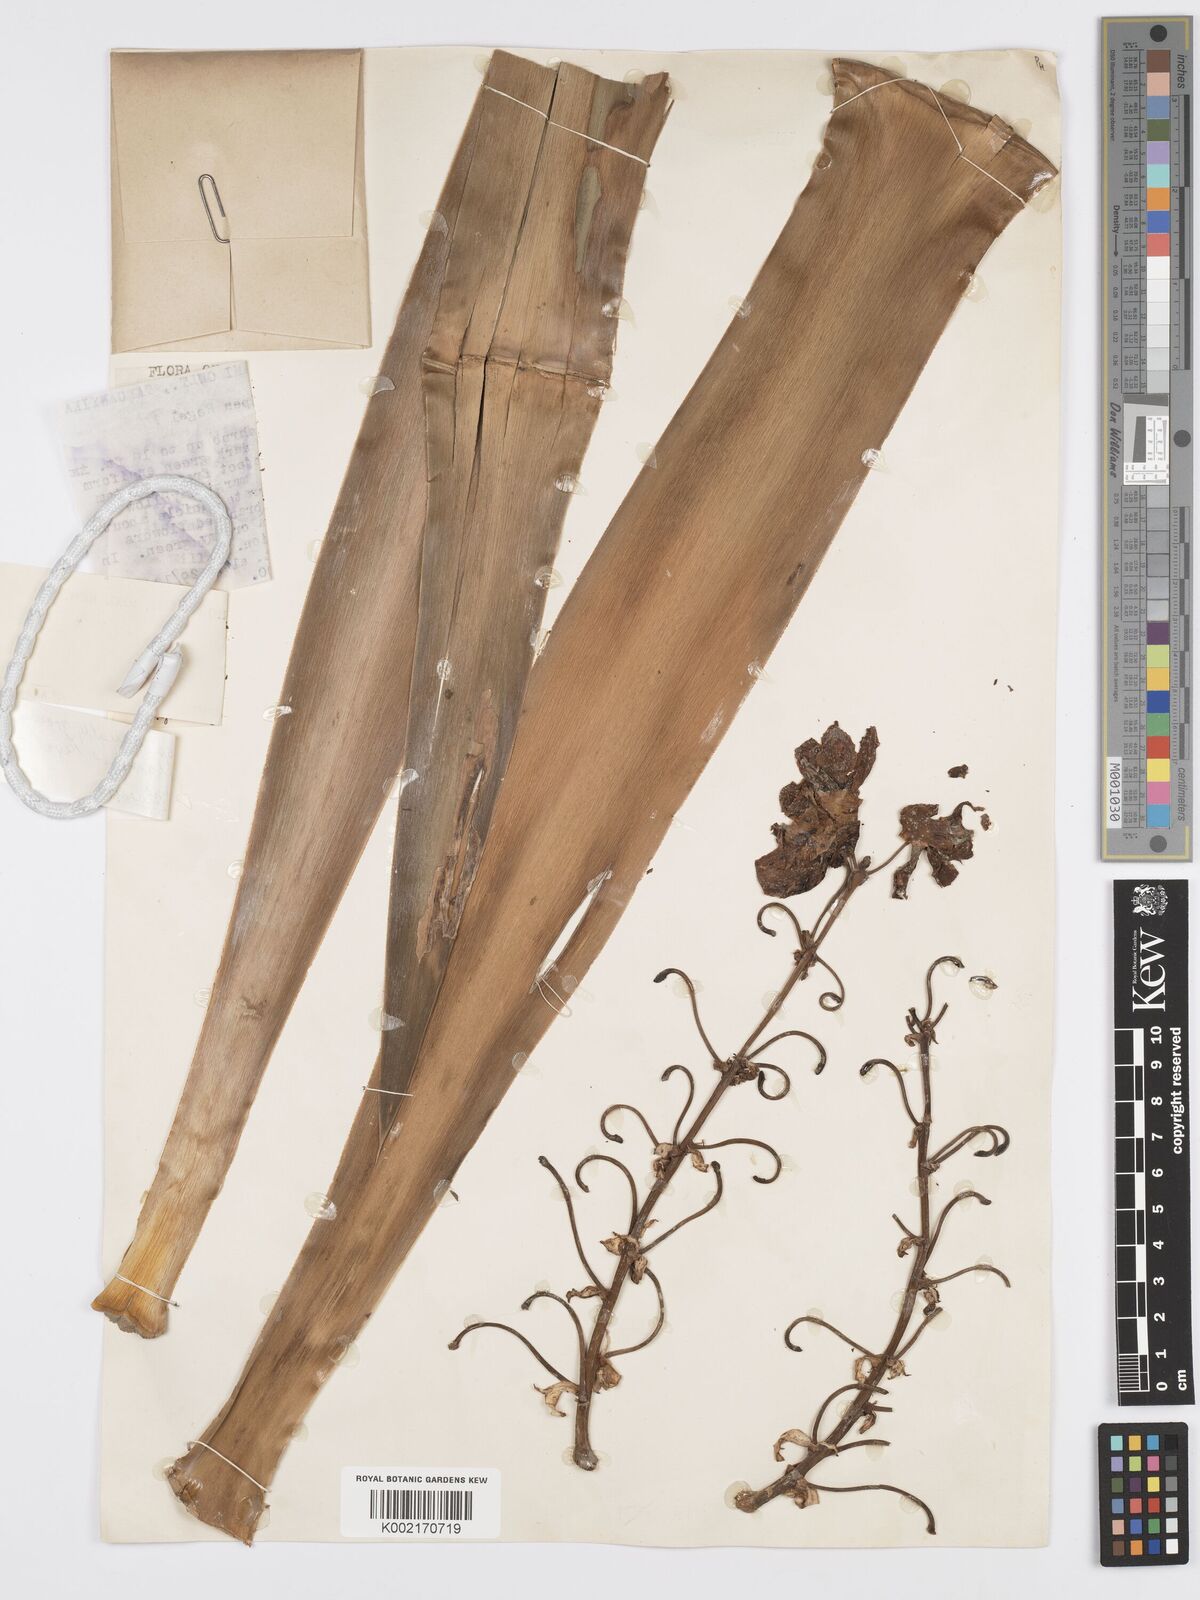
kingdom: Plantae
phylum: Tracheophyta
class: Liliopsida
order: Asparagales
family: Asparagaceae
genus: Yucca
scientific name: Yucca
